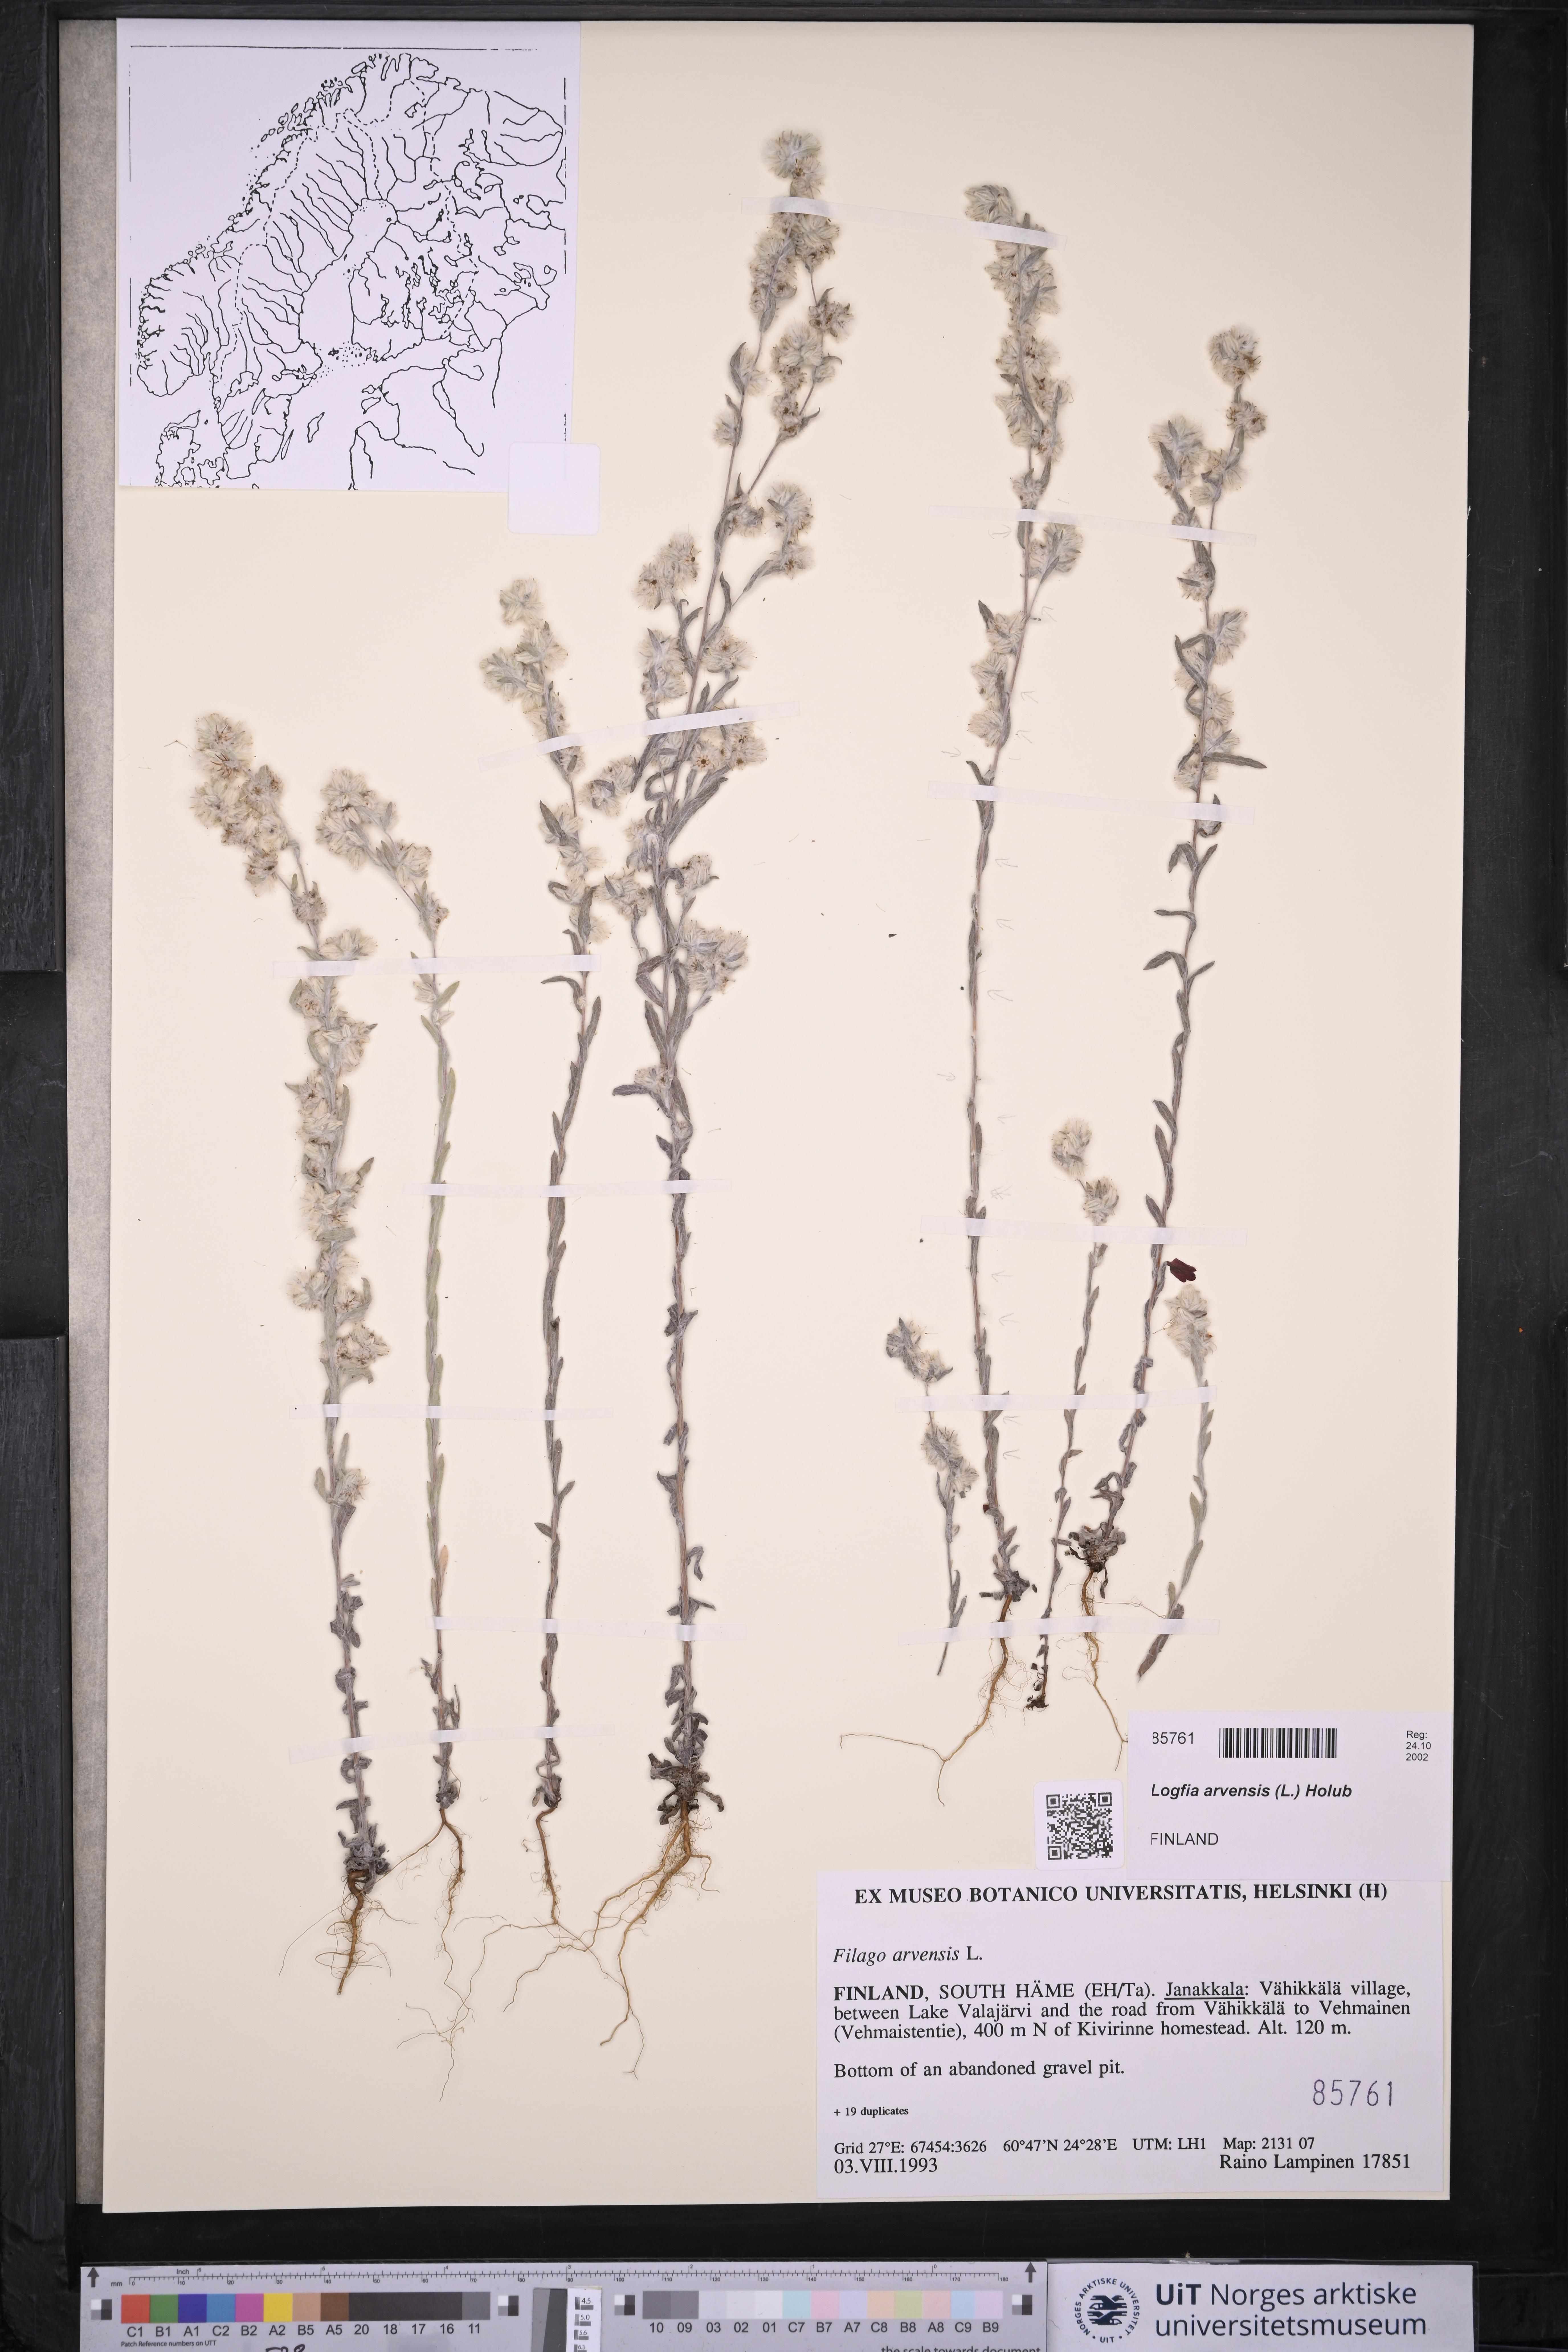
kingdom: Plantae
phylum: Tracheophyta
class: Magnoliopsida
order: Asterales
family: Asteraceae
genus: Filago
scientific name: Filago arvensis
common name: Field cudweed
